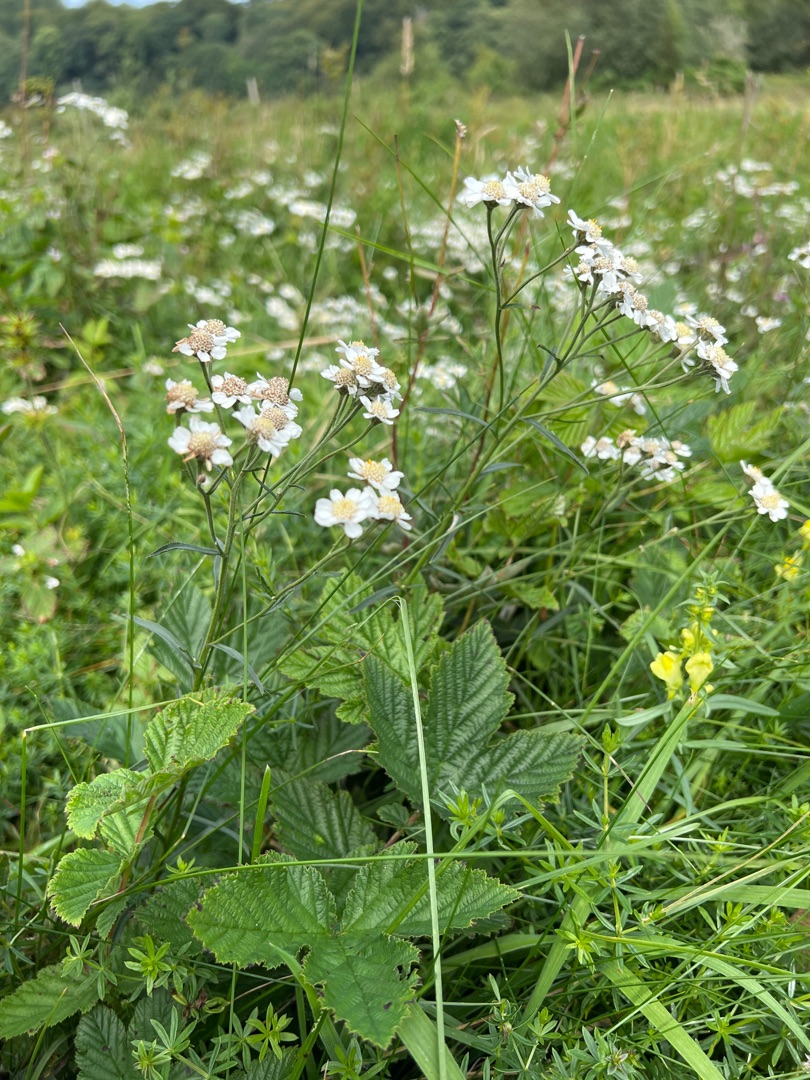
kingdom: Plantae
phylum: Tracheophyta
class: Magnoliopsida
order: Asterales
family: Asteraceae
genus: Achillea
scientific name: Achillea ptarmica
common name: Nyse-røllike
